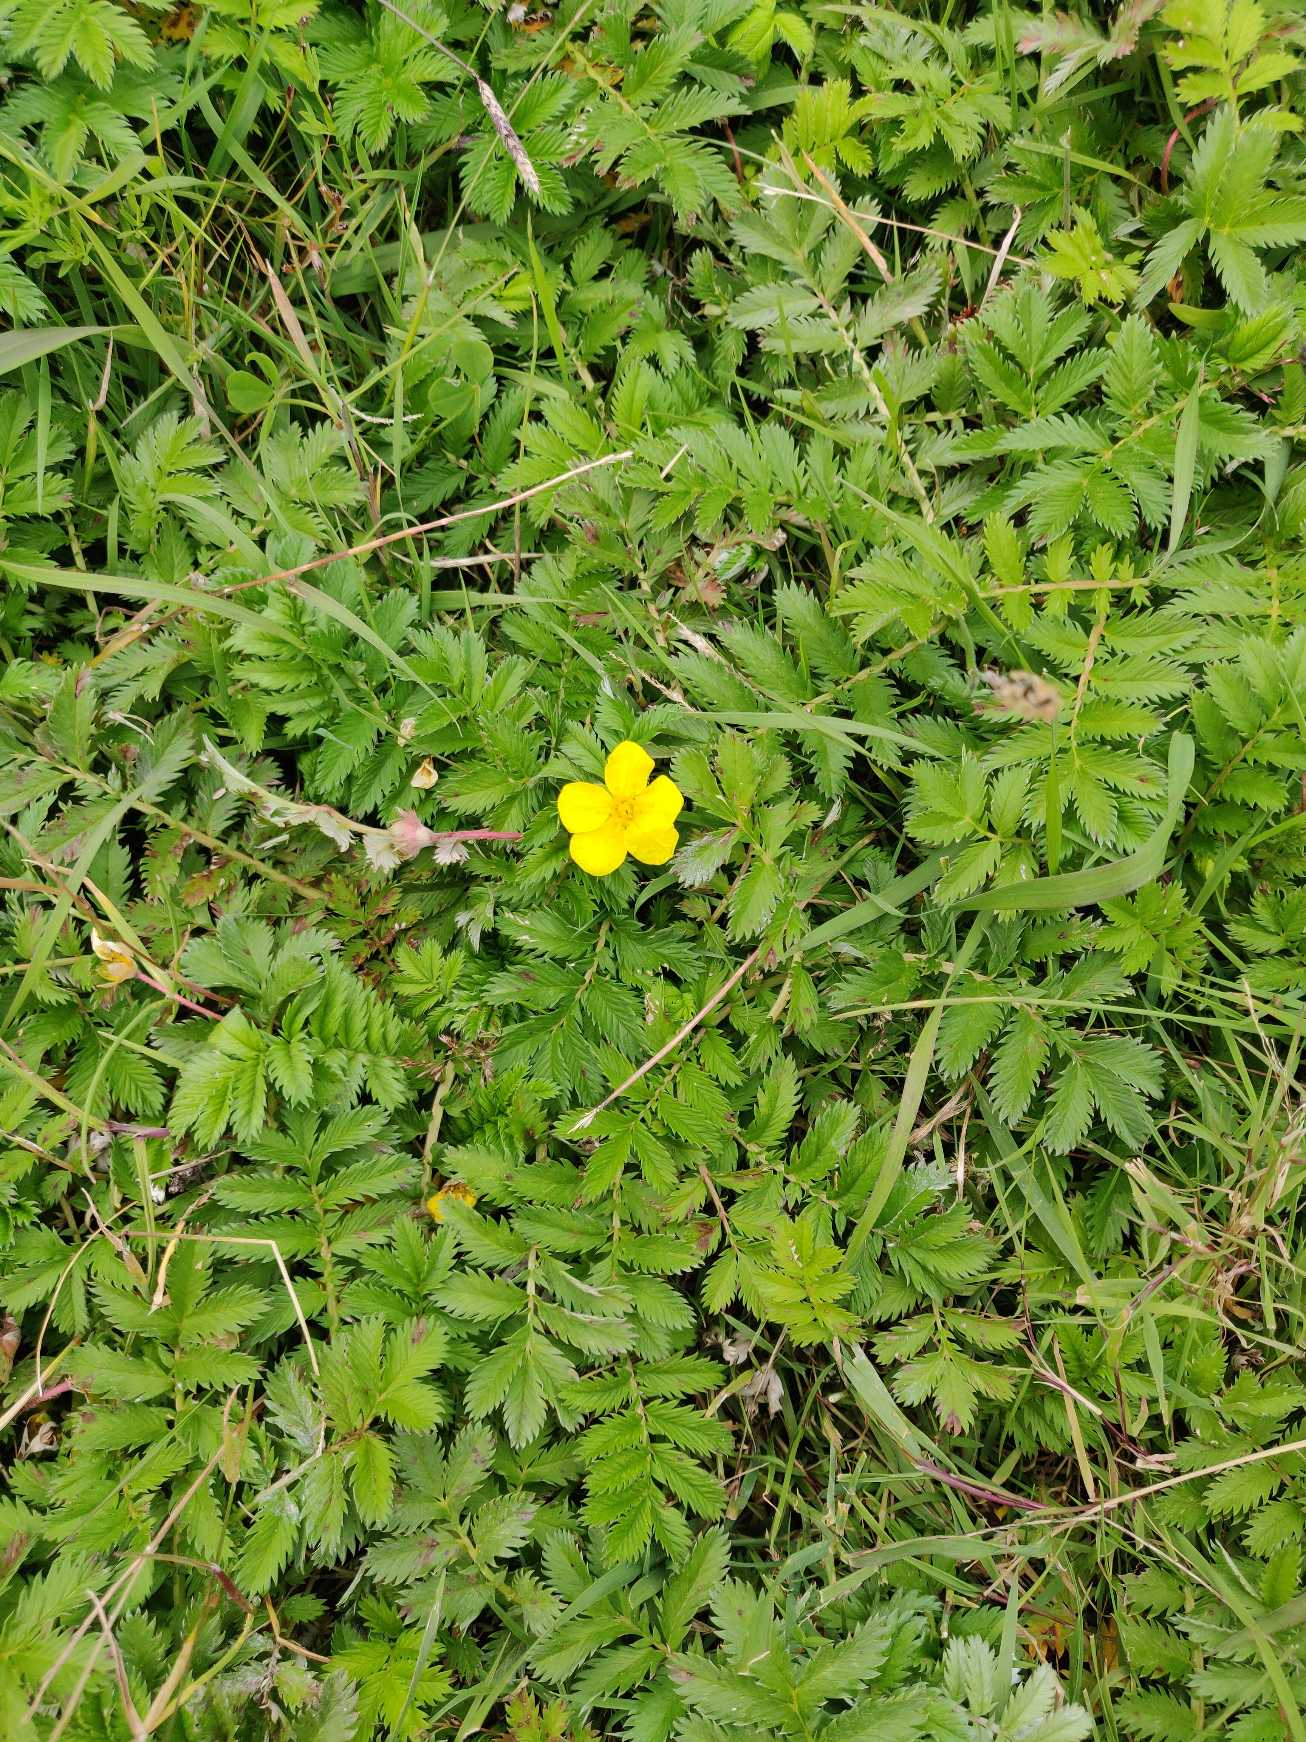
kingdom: Plantae
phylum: Tracheophyta
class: Magnoliopsida
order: Rosales
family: Rosaceae
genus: Argentina
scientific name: Argentina anserina
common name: Gåsepotentil
